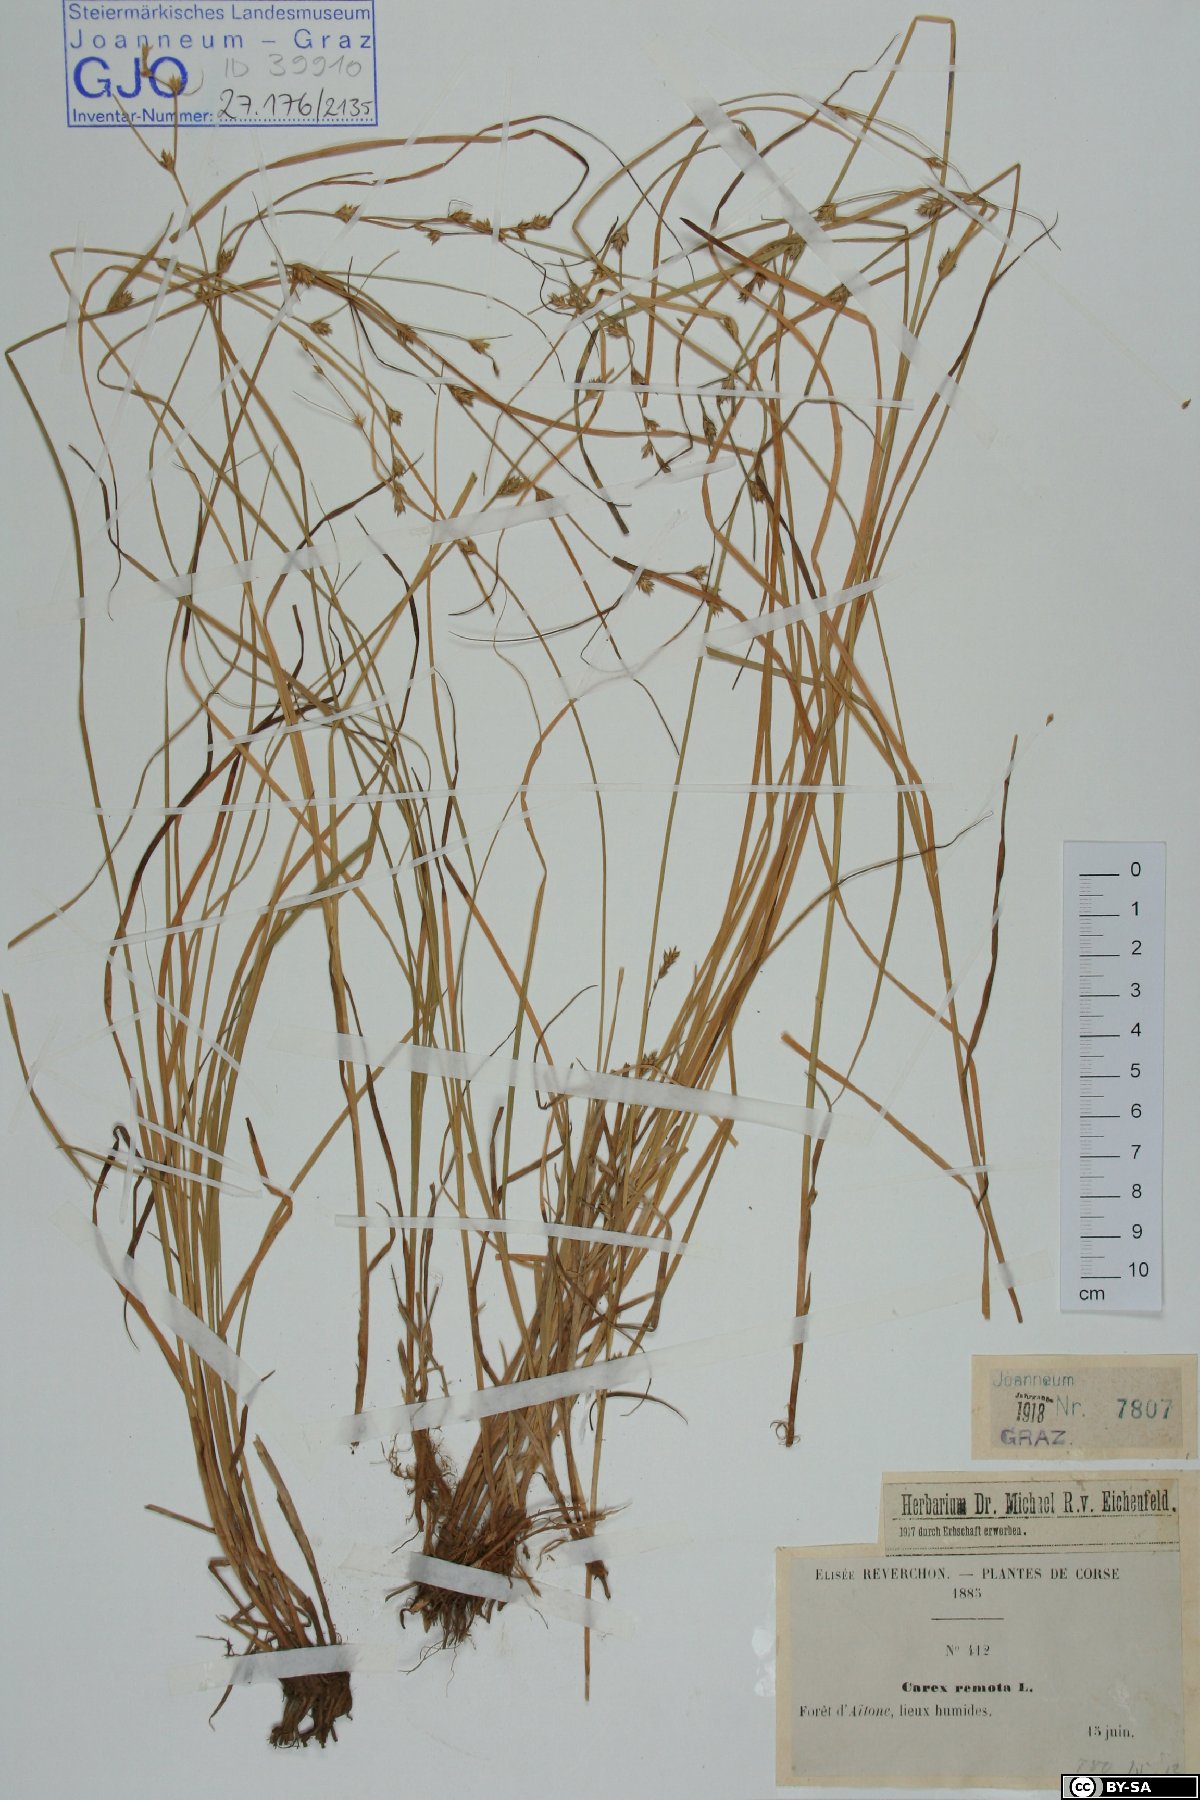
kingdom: Plantae
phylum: Tracheophyta
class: Liliopsida
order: Poales
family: Cyperaceae
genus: Carex
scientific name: Carex remota
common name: Remote sedge
